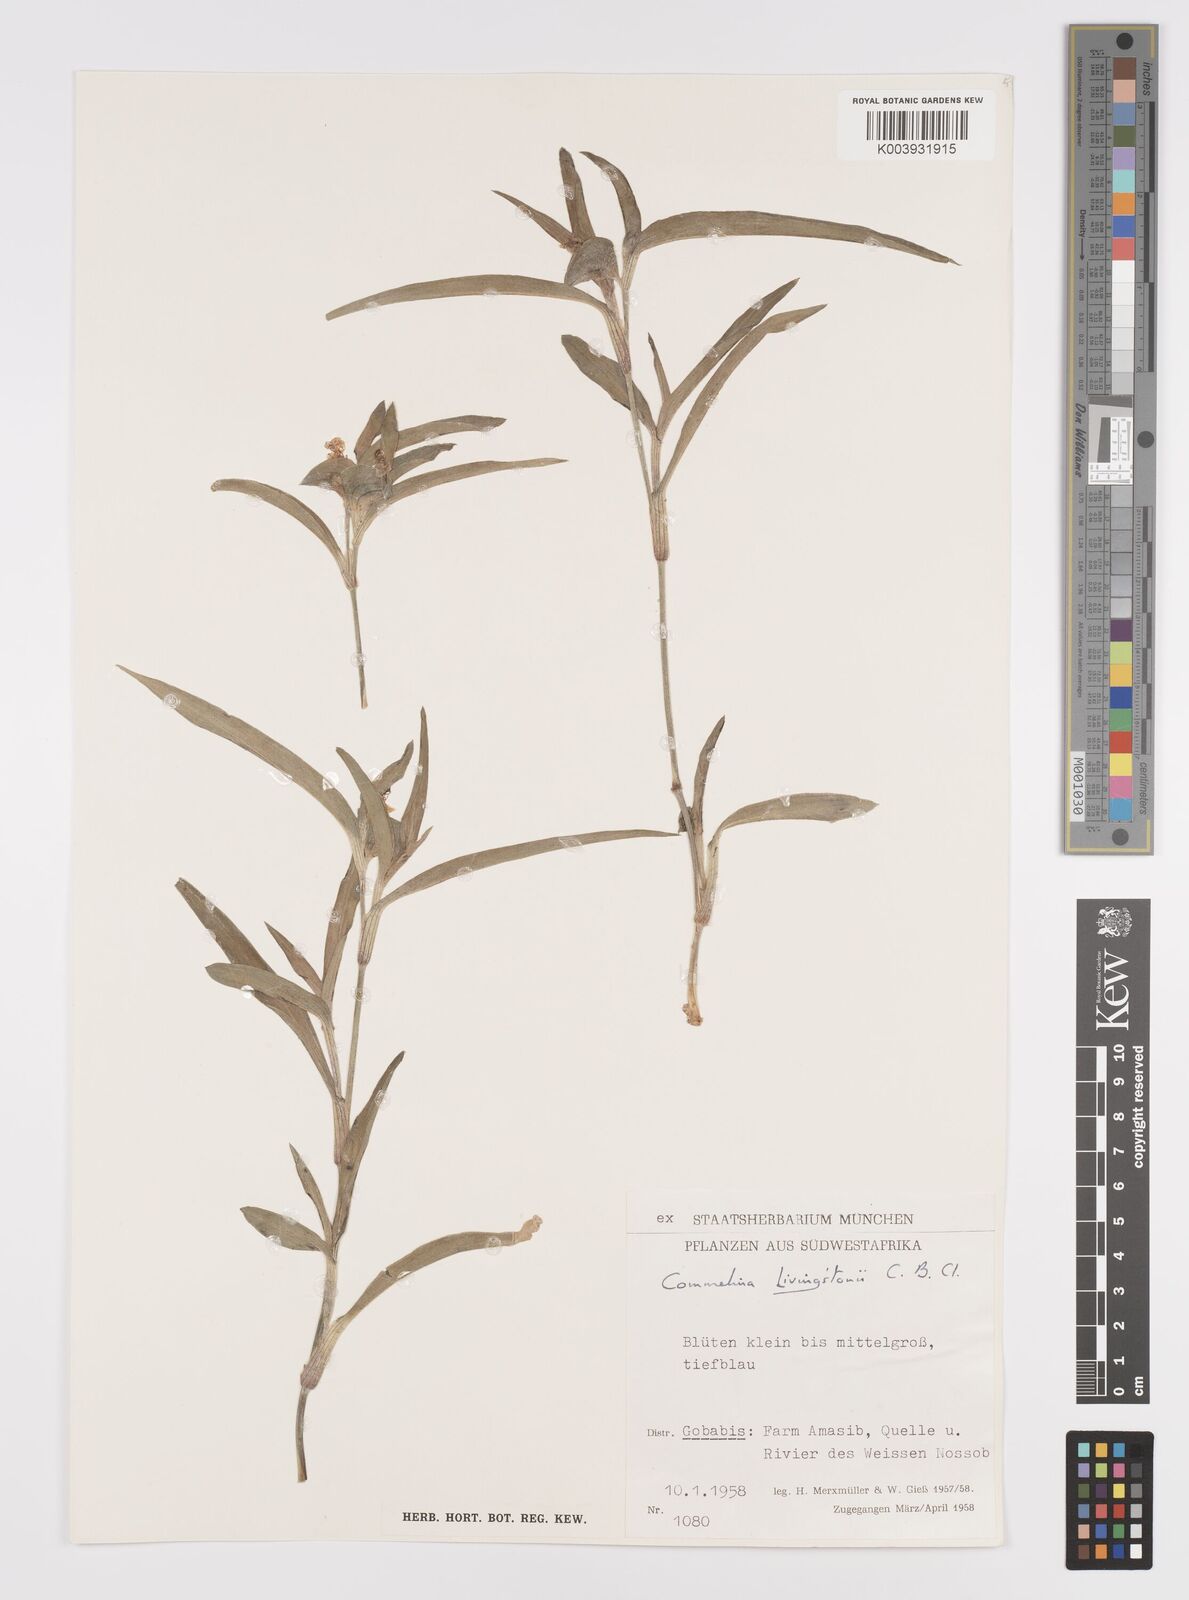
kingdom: Plantae
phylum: Tracheophyta
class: Liliopsida
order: Commelinales
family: Commelinaceae
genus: Commelina
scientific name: Commelina erecta
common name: Blousel blommetjie
